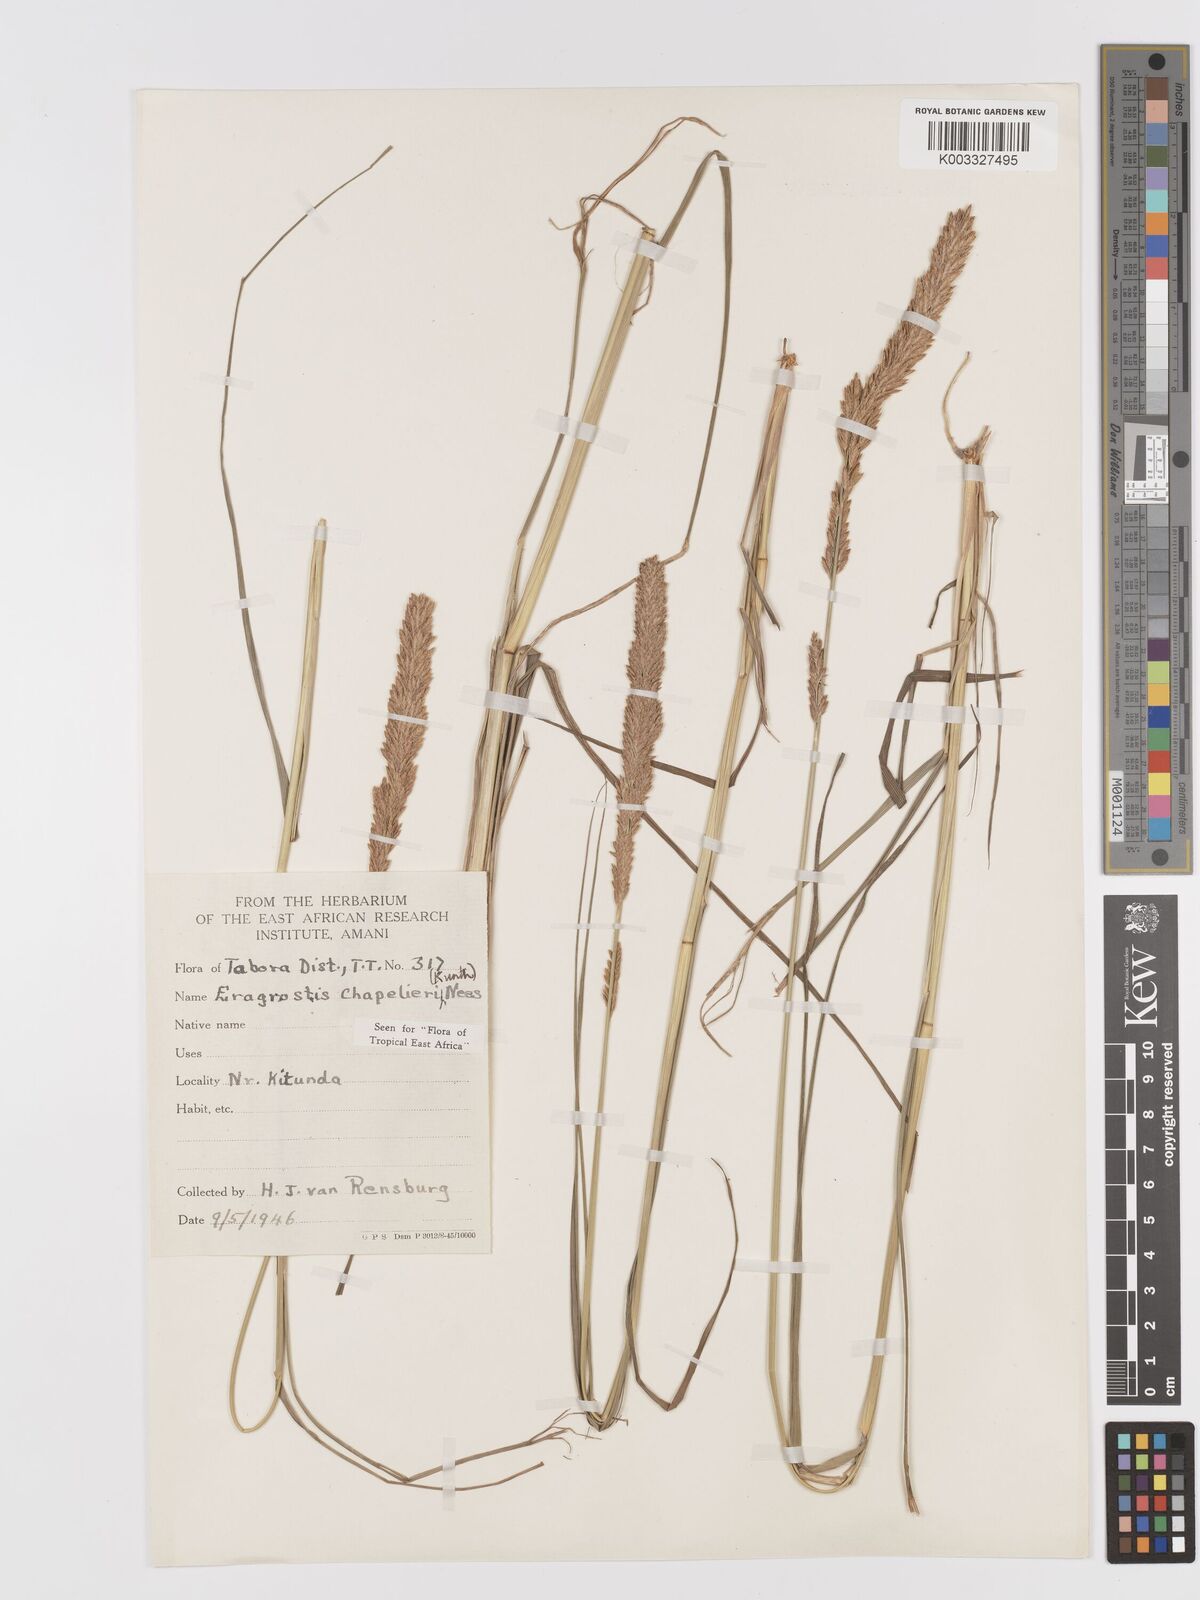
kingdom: Plantae
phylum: Tracheophyta
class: Liliopsida
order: Poales
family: Poaceae
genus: Eragrostis
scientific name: Eragrostis chapelieri
